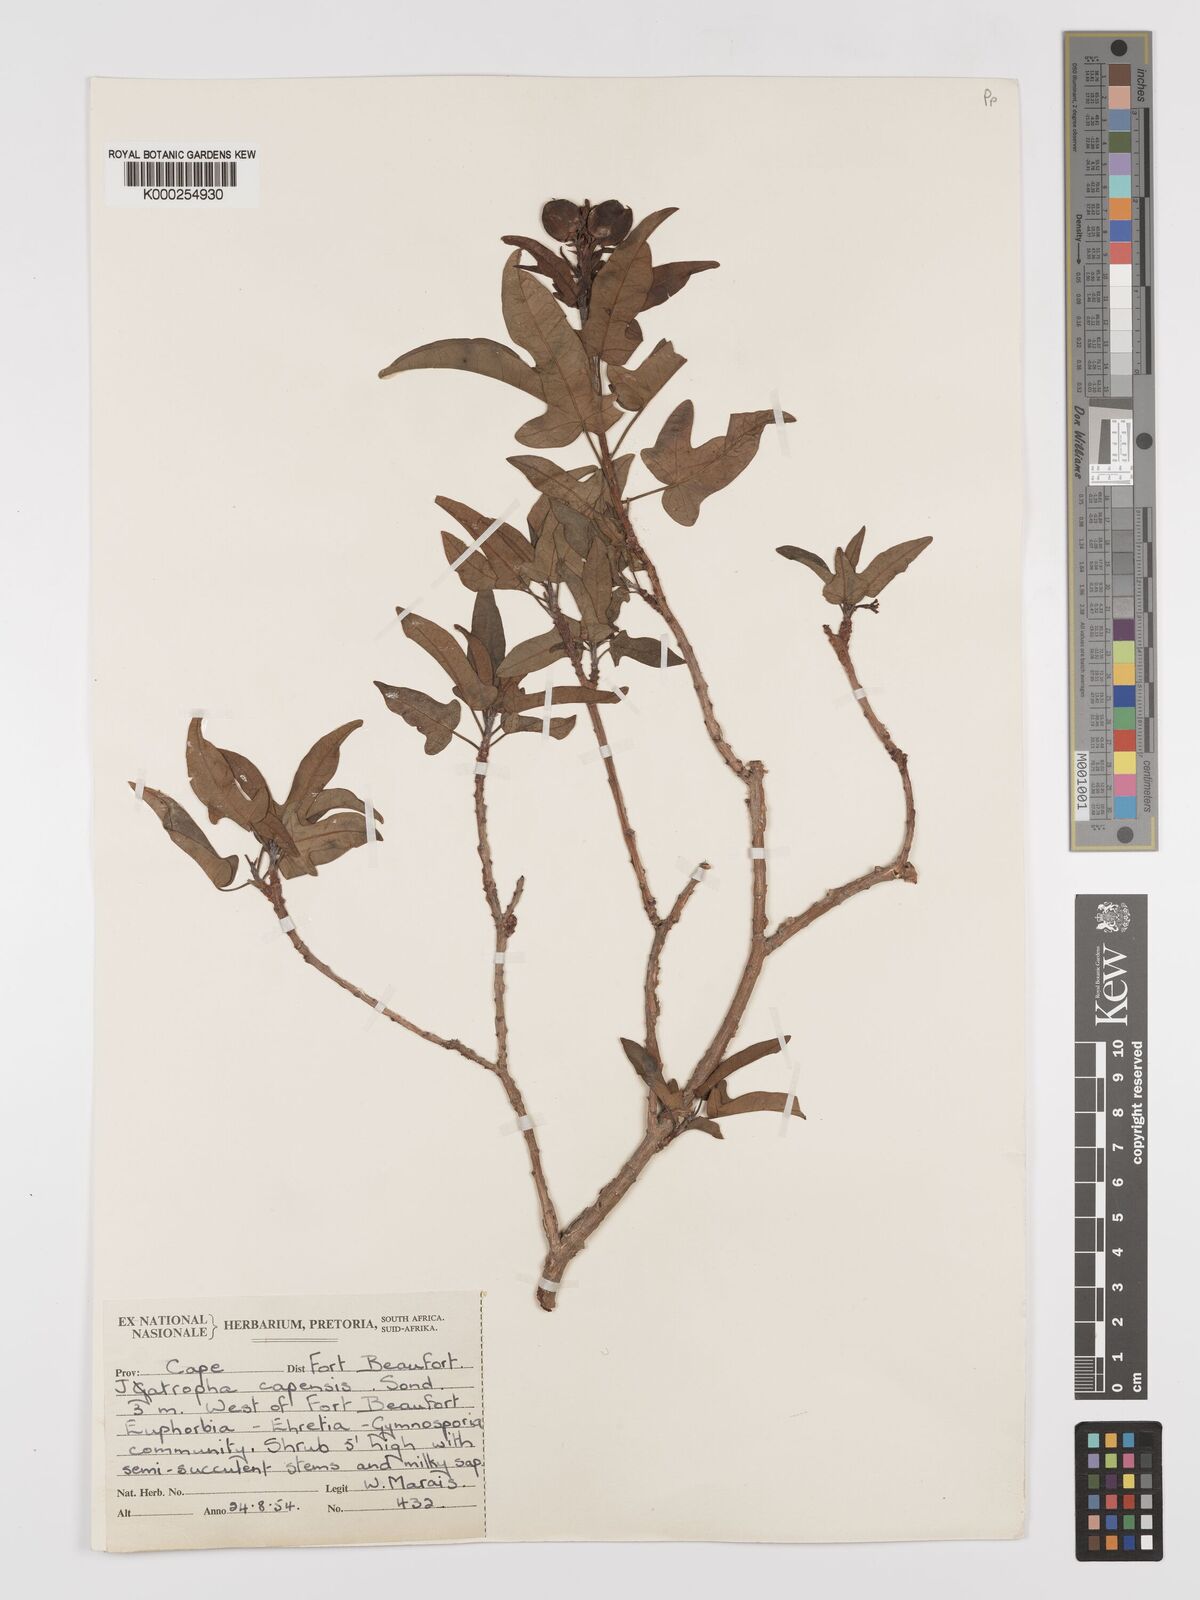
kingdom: Plantae
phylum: Tracheophyta
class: Magnoliopsida
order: Malpighiales
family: Euphorbiaceae
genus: Jatropha
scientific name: Jatropha capensis
